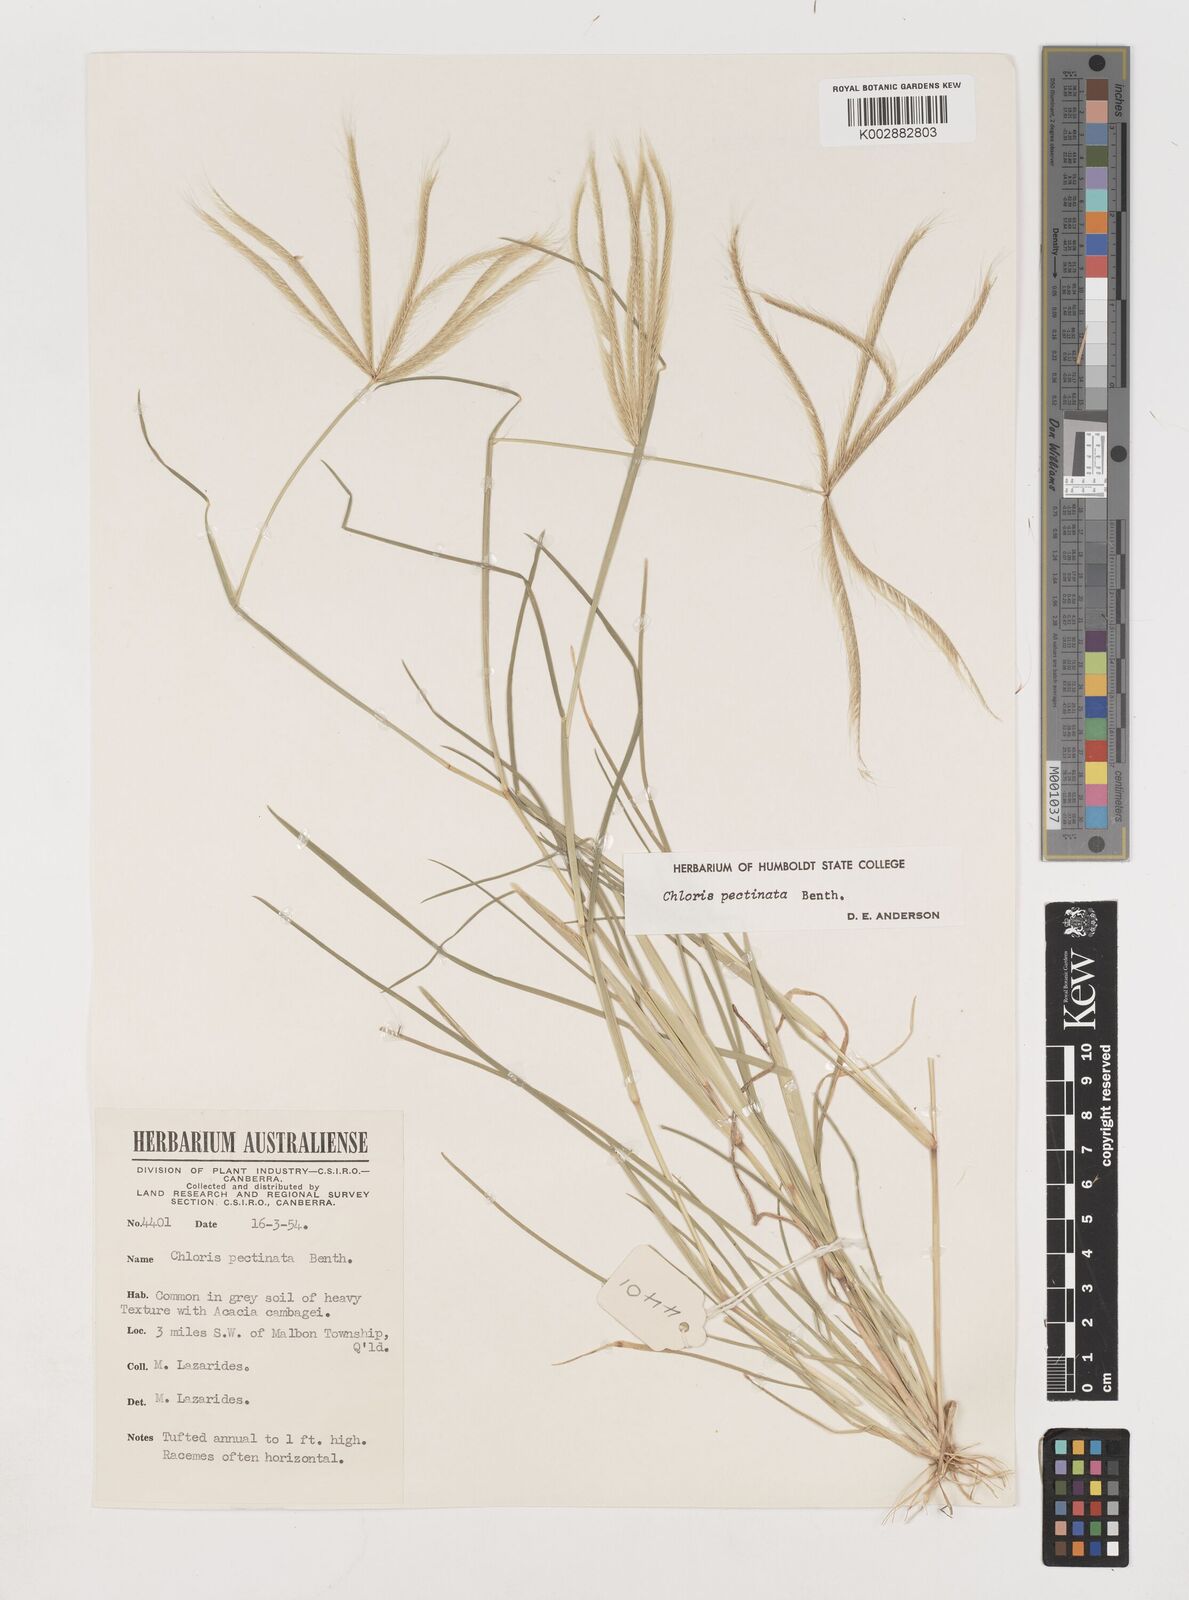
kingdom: Plantae
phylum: Tracheophyta
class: Liliopsida
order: Poales
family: Poaceae
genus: Chloris
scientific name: Chloris pectinata
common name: Comb windmill grass
